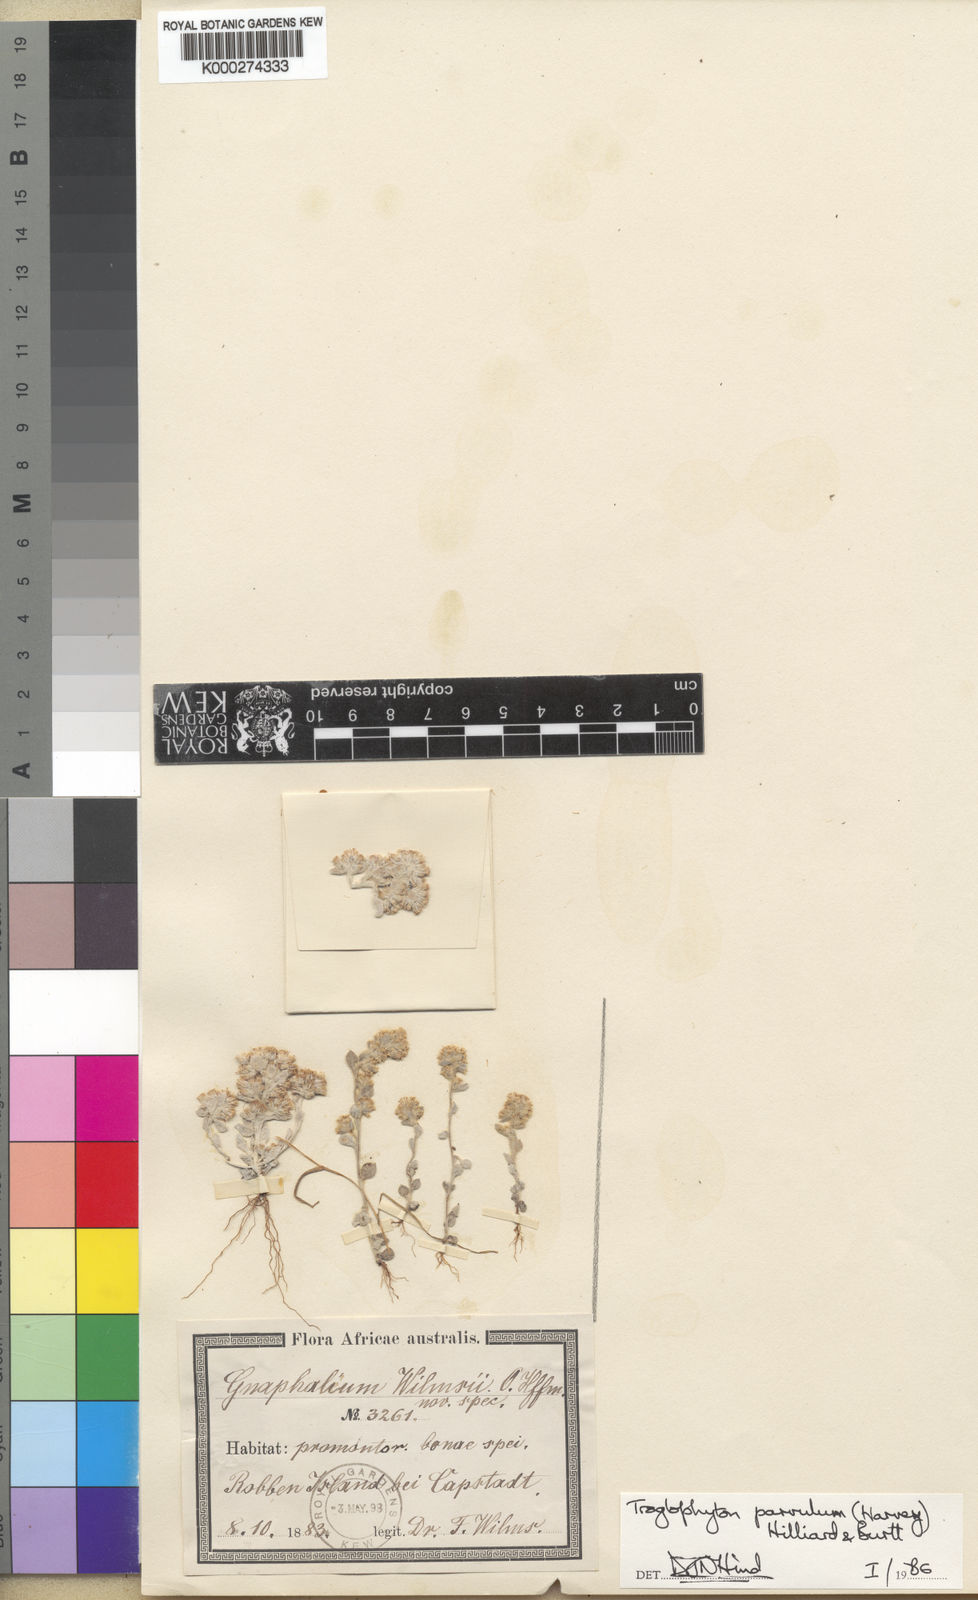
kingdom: Plantae
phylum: Tracheophyta
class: Magnoliopsida
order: Asterales
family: Asteraceae
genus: Troglophyton
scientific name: Troglophyton parvulum
